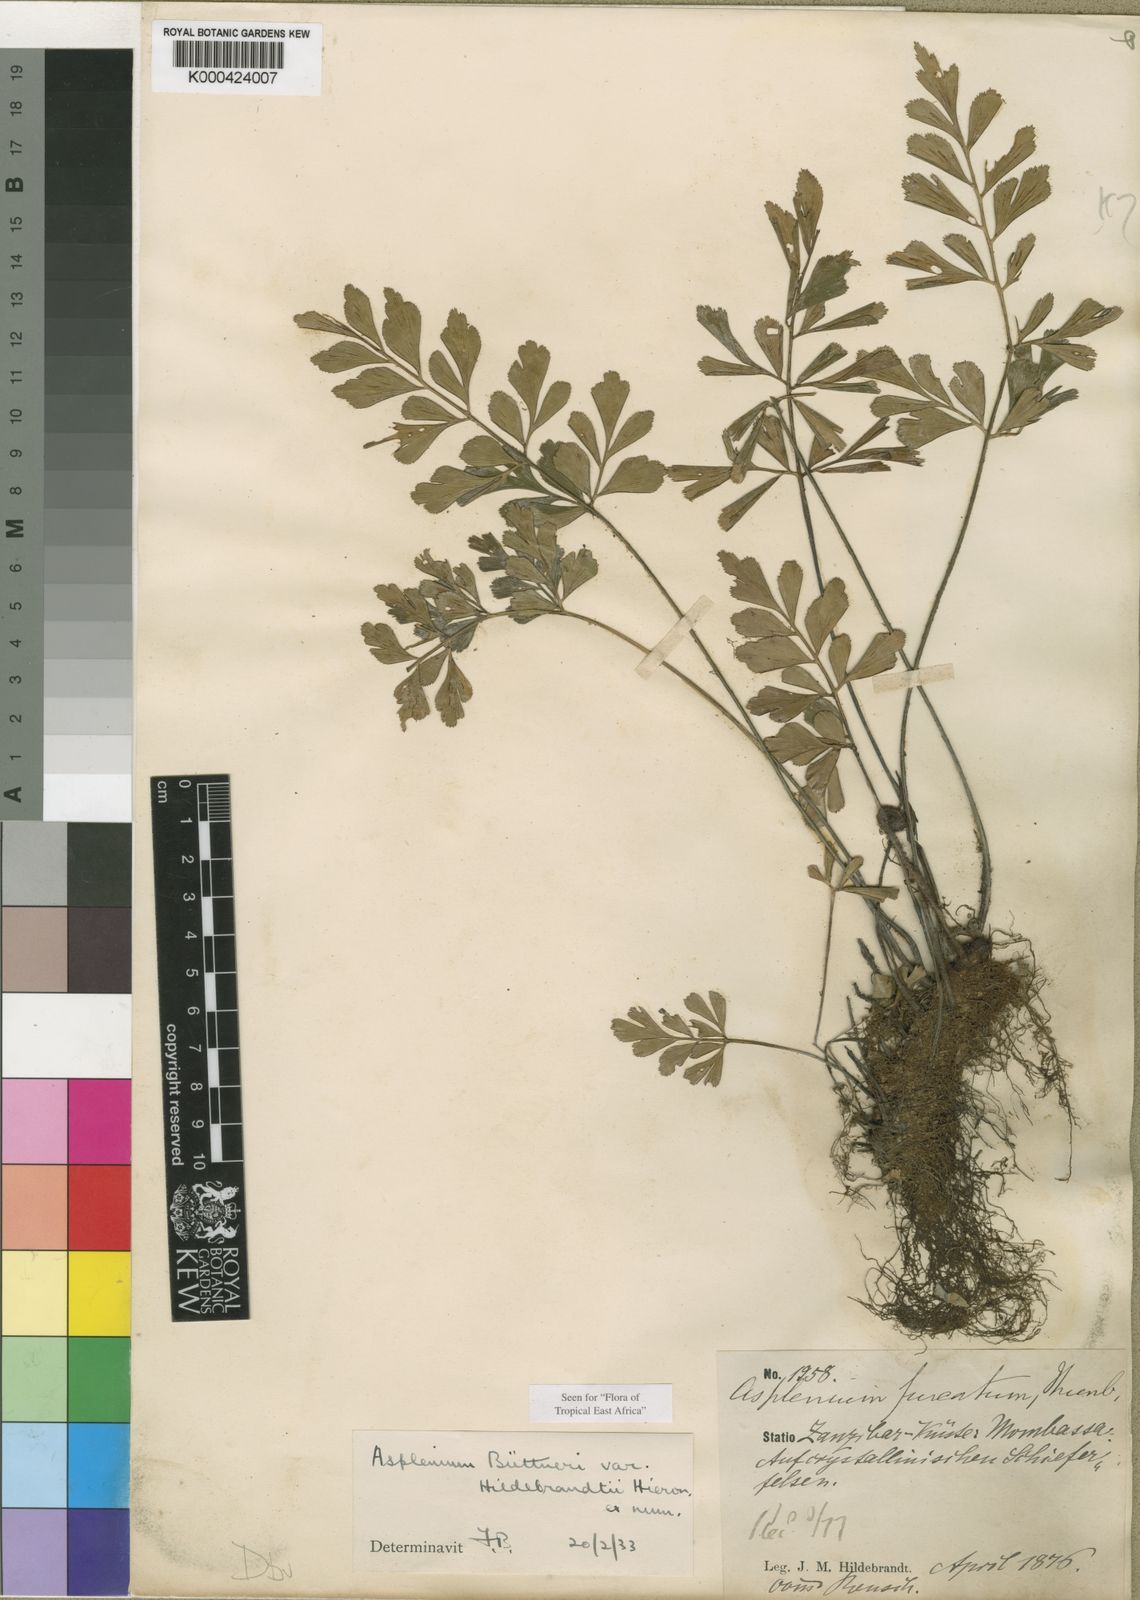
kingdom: Plantae
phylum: Tracheophyta
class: Polypodiopsida
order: Polypodiales
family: Aspleniaceae
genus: Asplenium
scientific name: Asplenium hildebrandtianum
